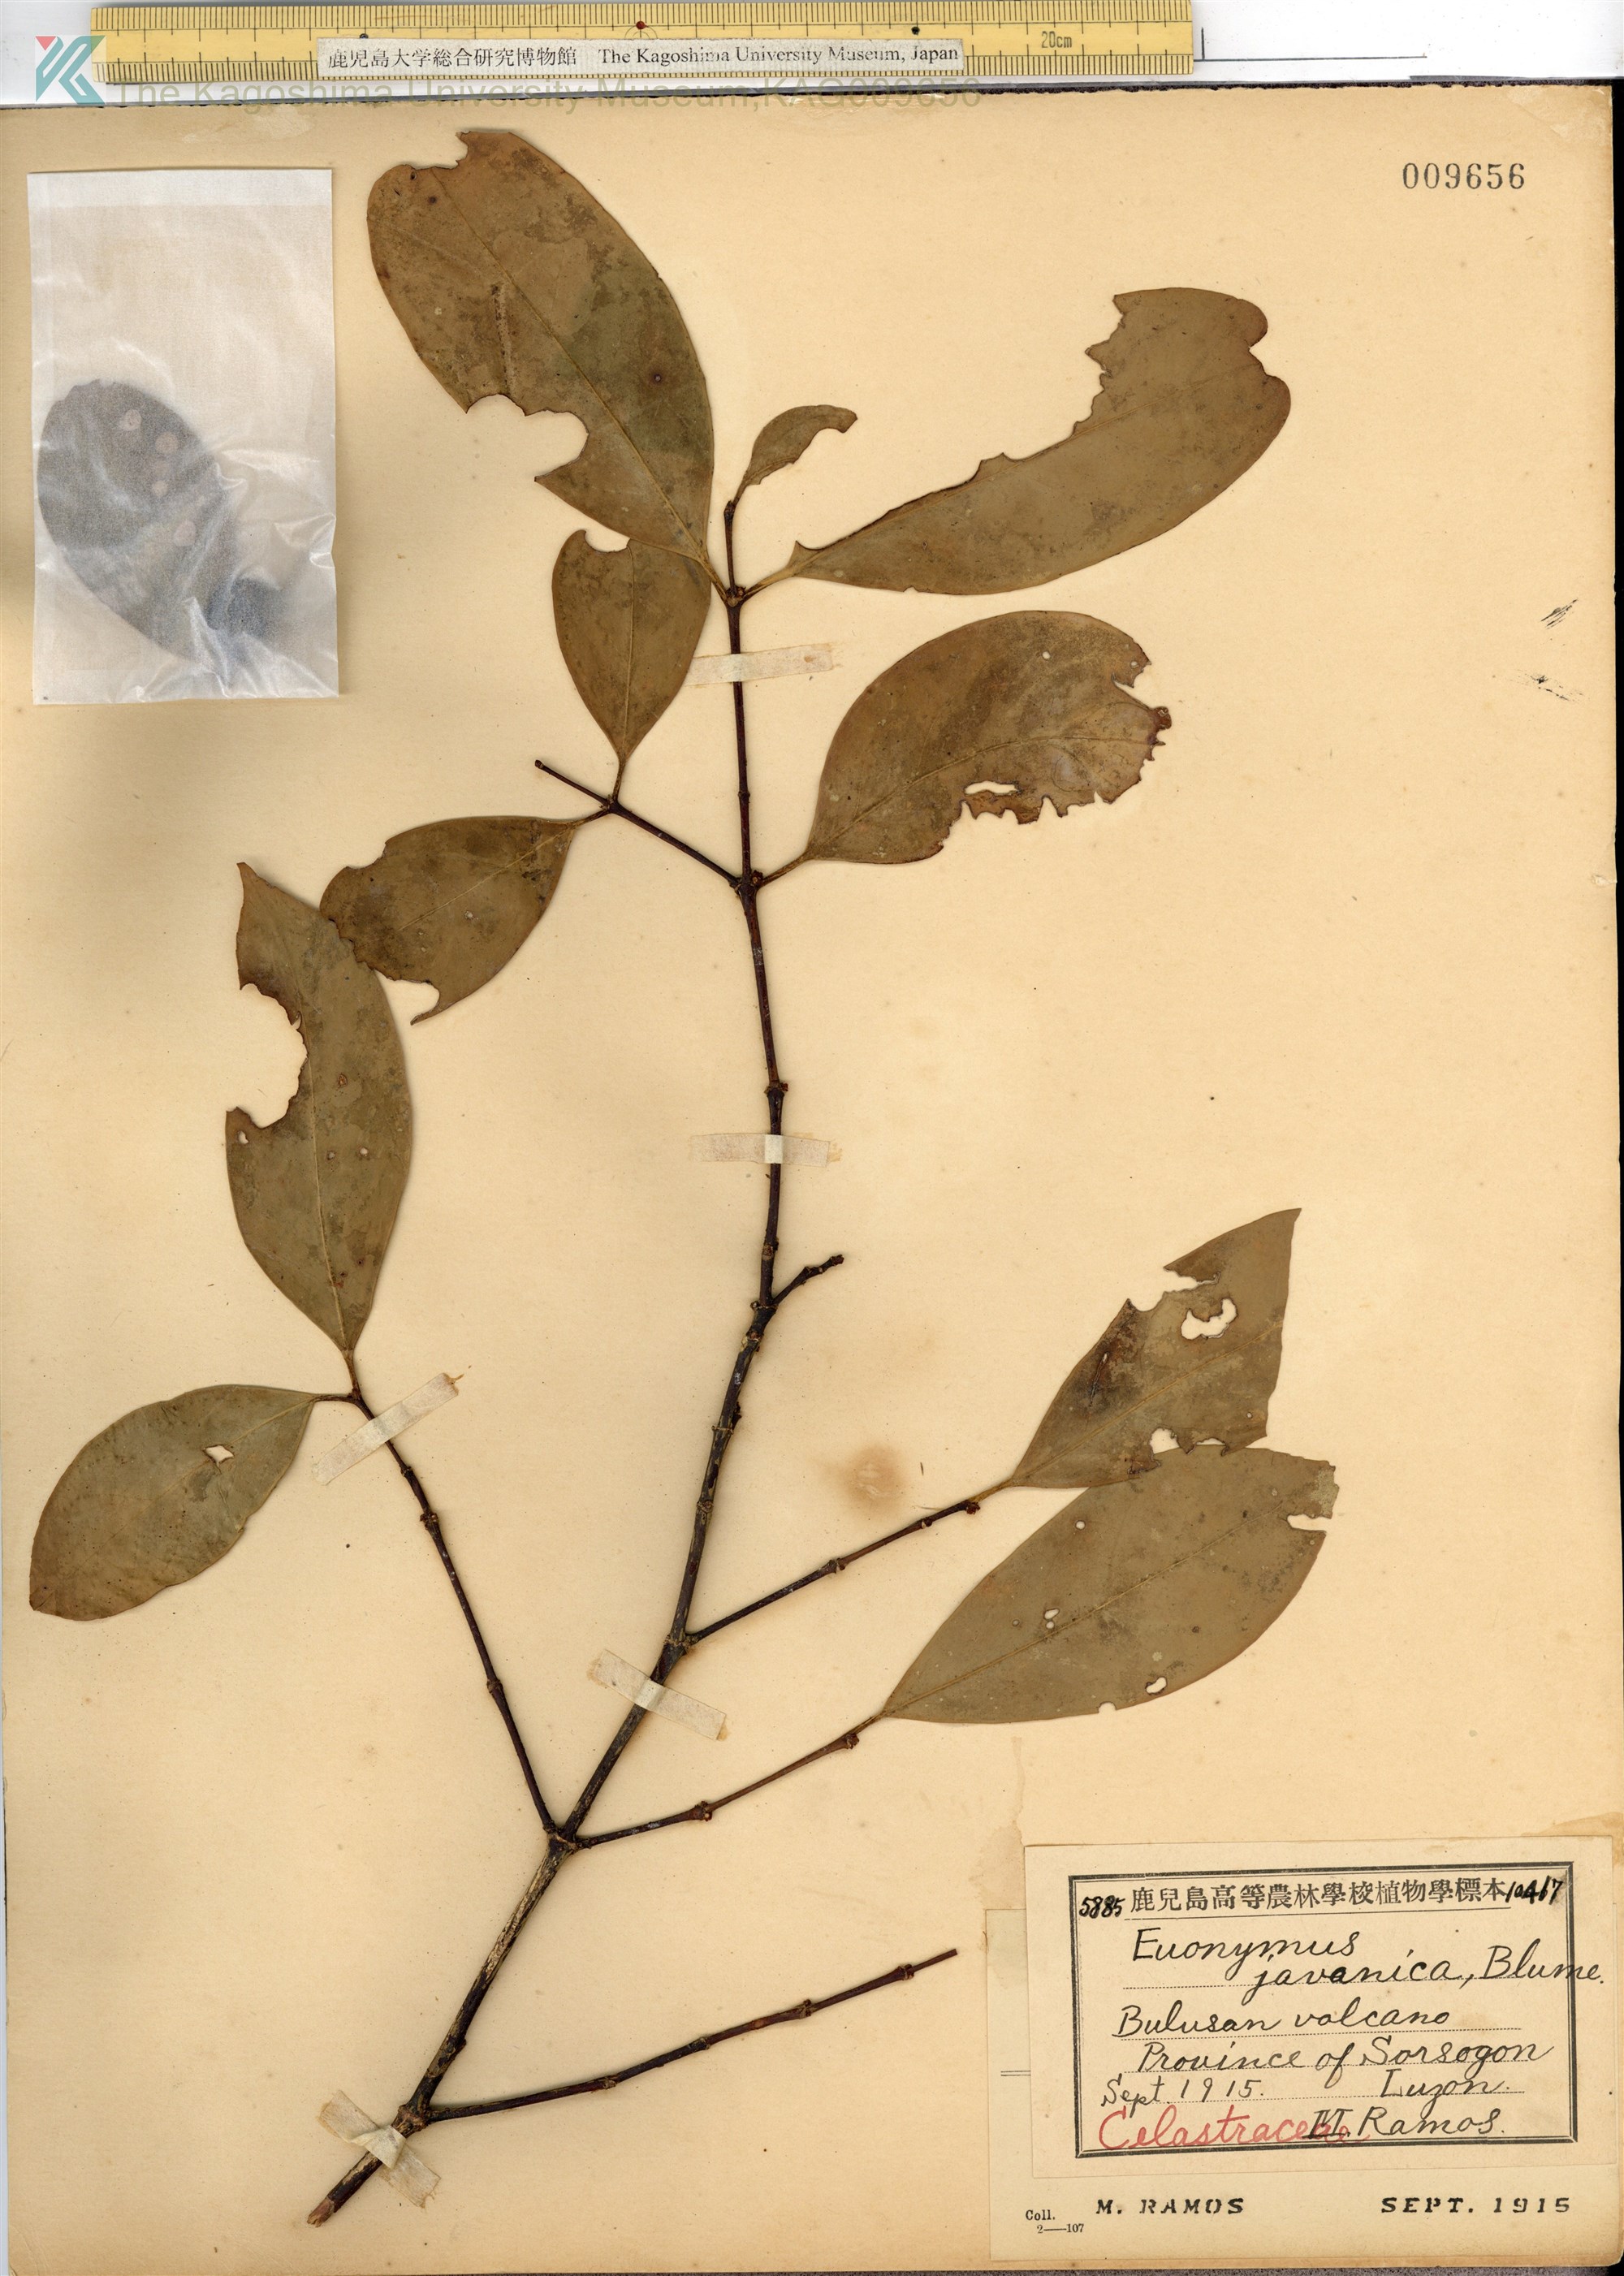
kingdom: Plantae
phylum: Tracheophyta
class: Magnoliopsida
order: Celastrales
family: Celastraceae
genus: Euonymus
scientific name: Euonymus indicus
